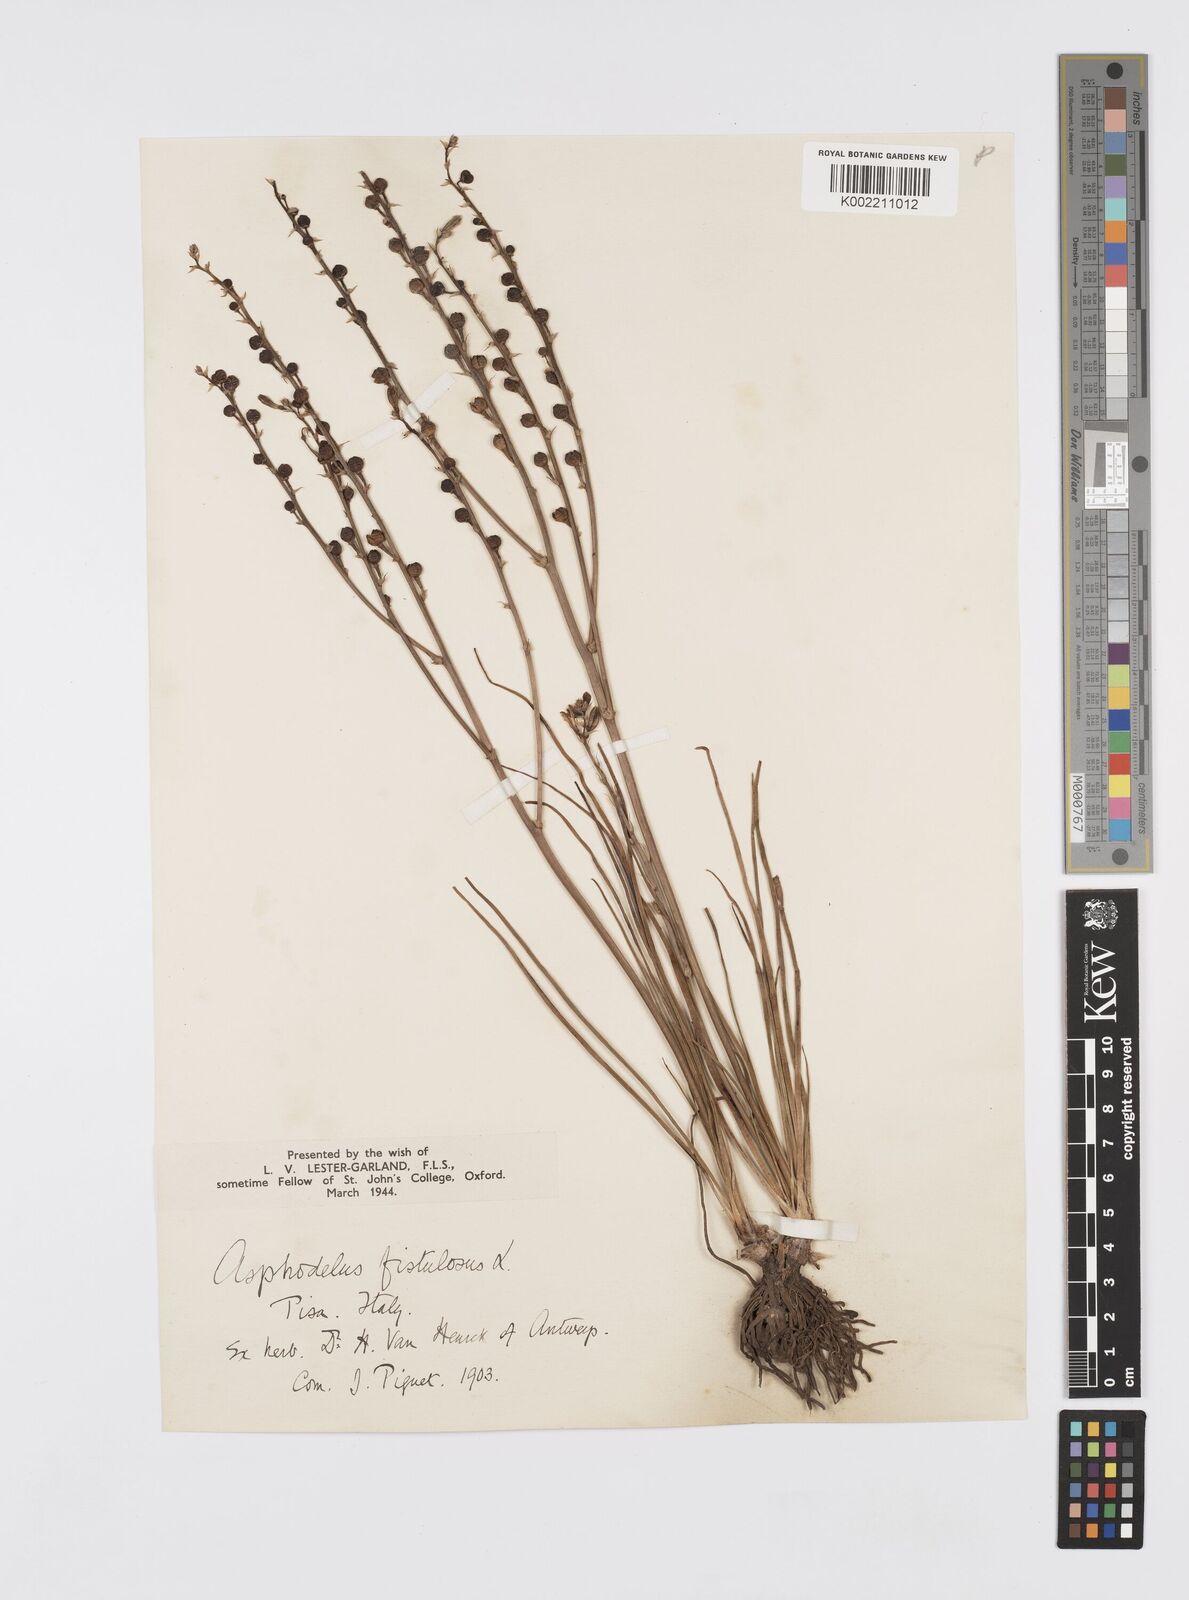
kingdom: Plantae
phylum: Tracheophyta
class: Liliopsida
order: Asparagales
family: Asphodelaceae
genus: Asphodelus
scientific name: Asphodelus fistulosus
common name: Onionweed
